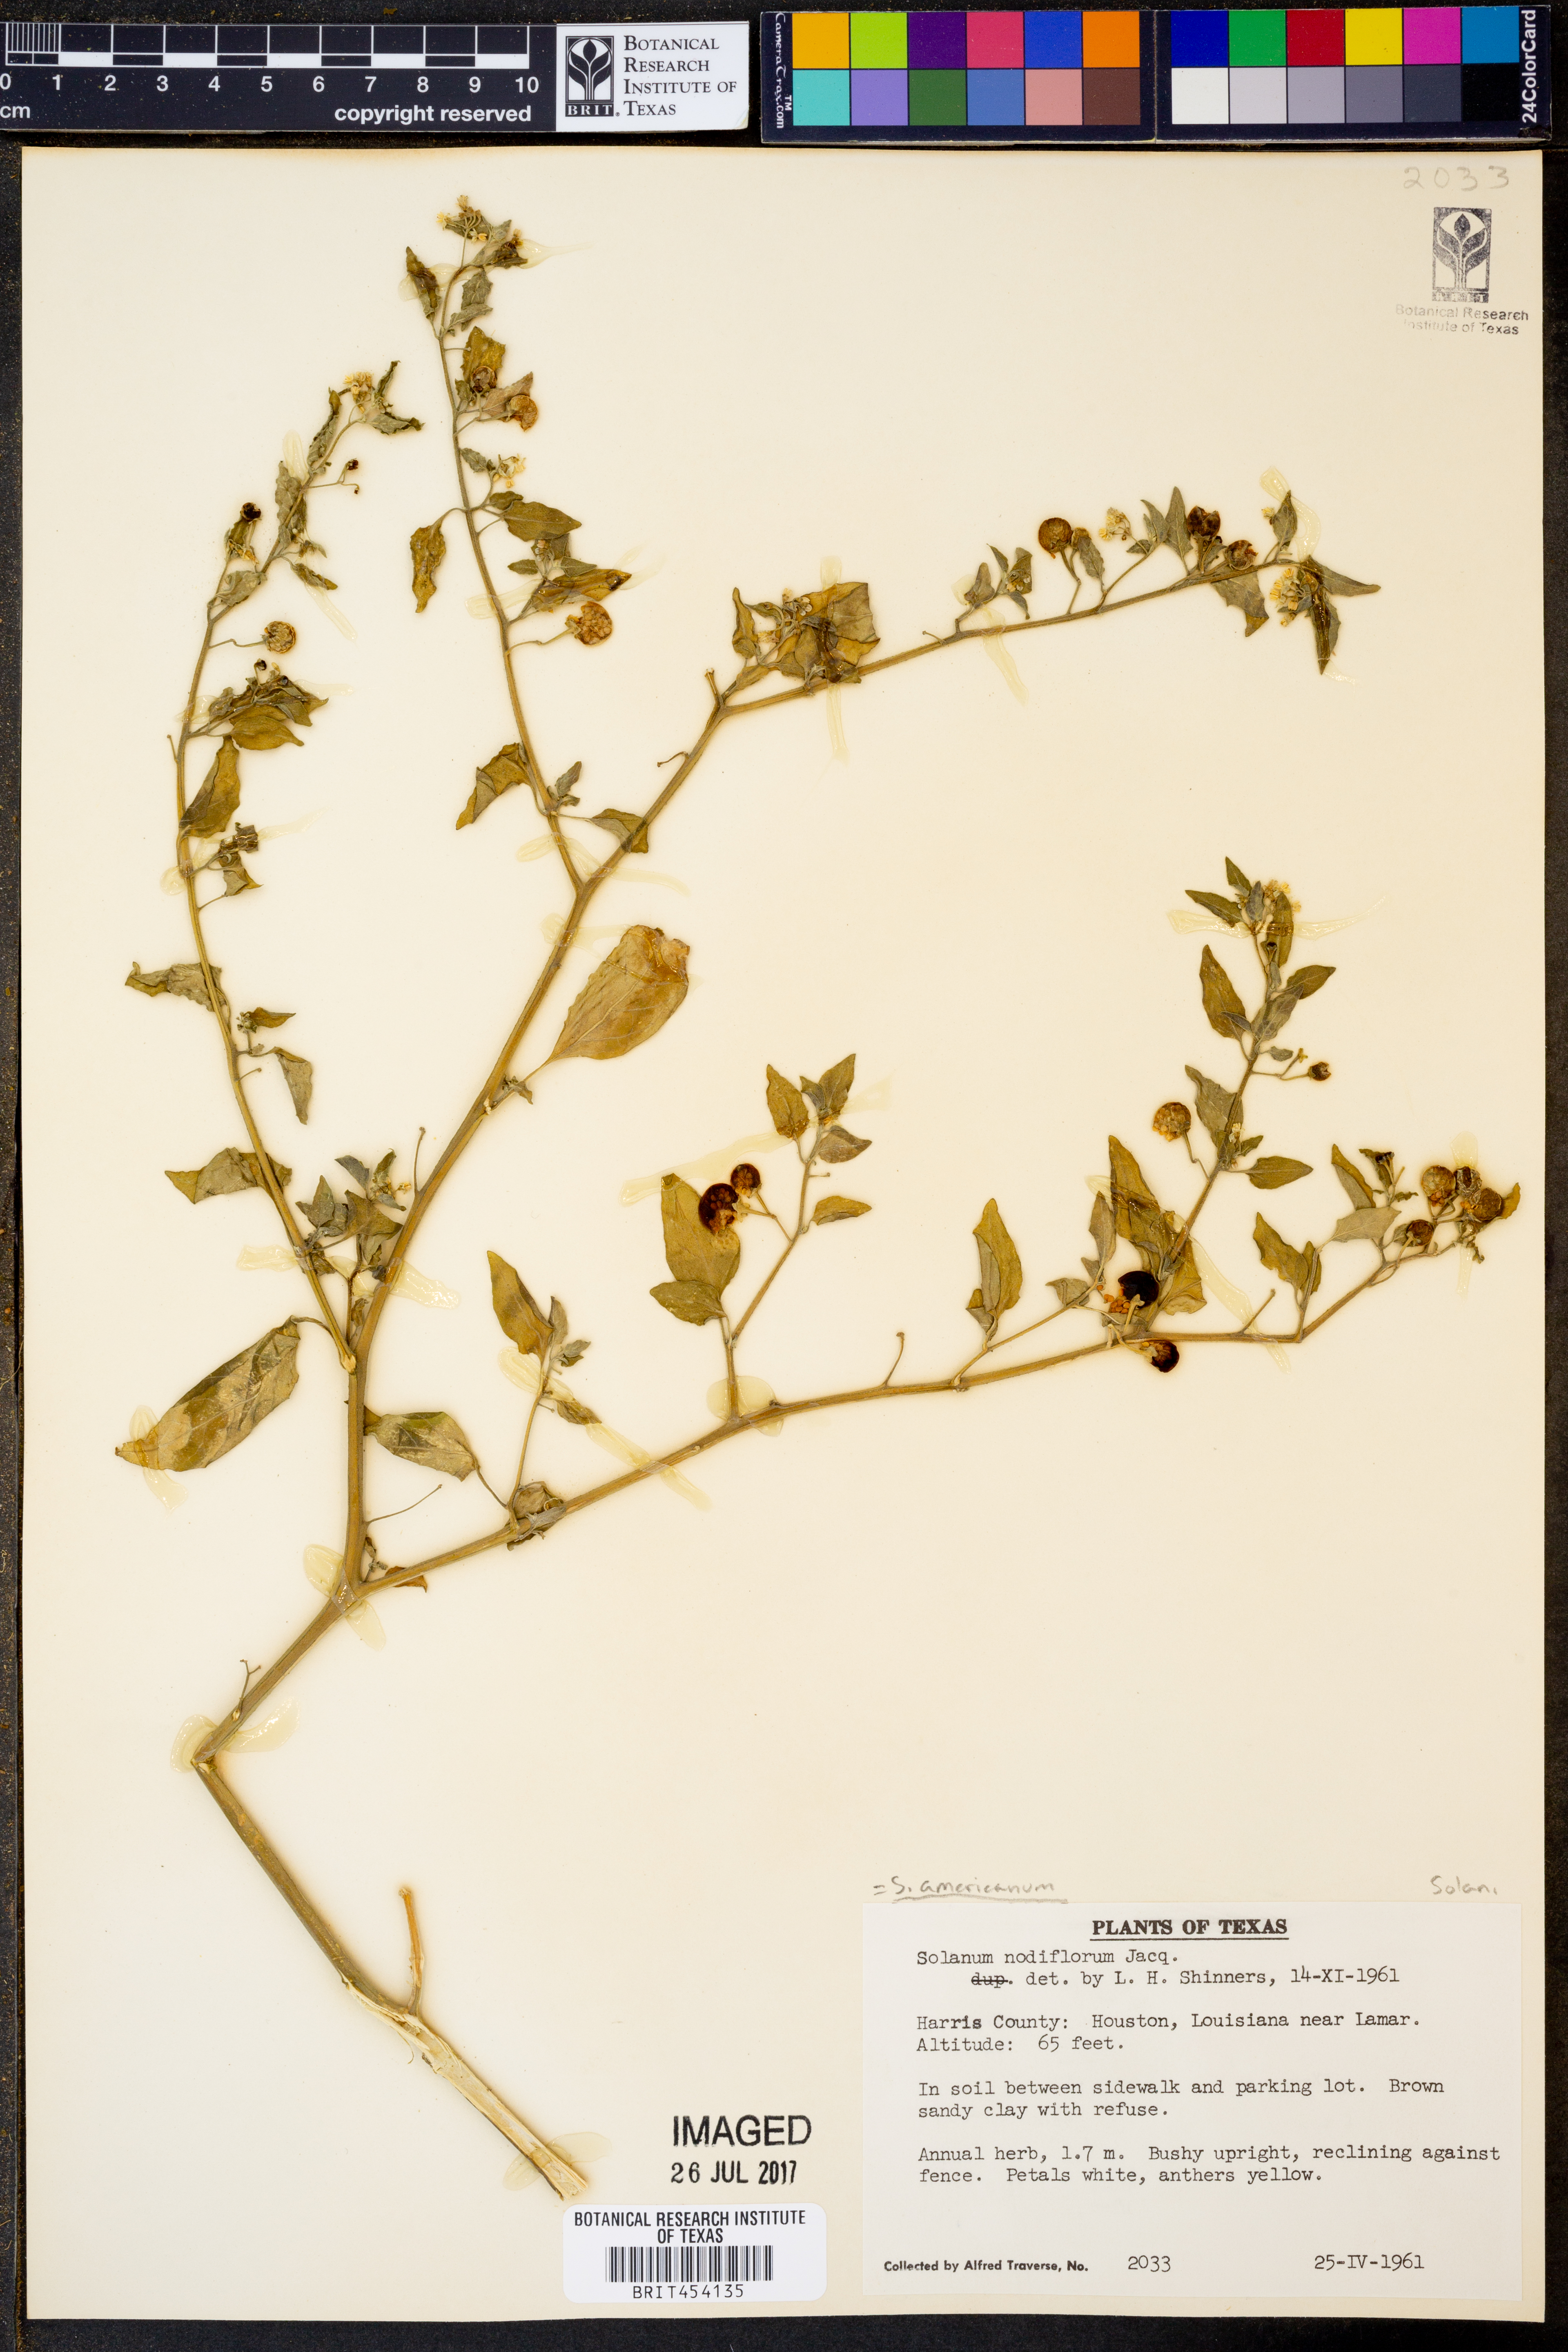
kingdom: Plantae
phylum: Tracheophyta
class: Magnoliopsida
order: Solanales
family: Solanaceae
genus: Solanum
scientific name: Solanum americanum
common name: American black nightshade
